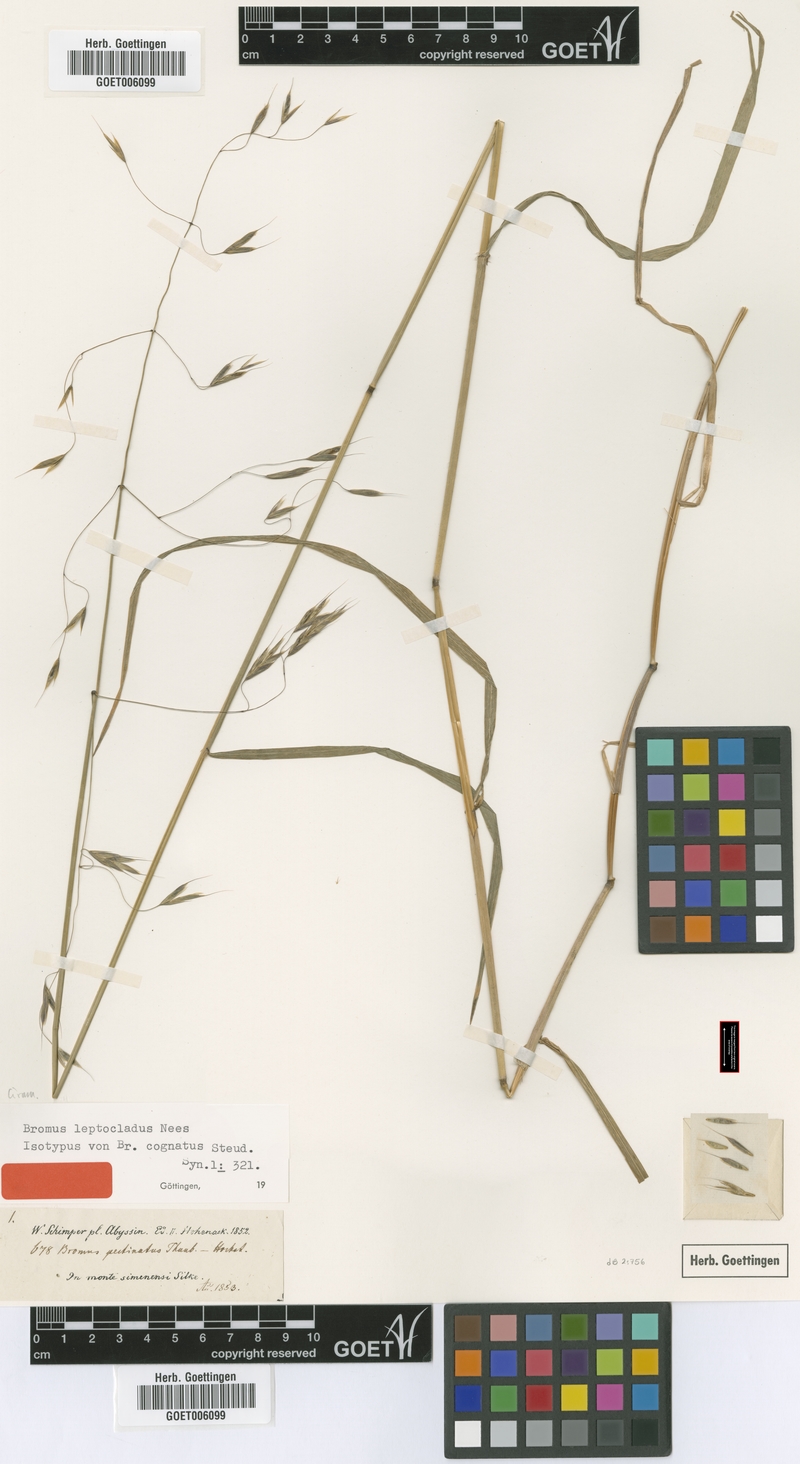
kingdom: Plantae
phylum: Tracheophyta
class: Liliopsida
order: Poales
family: Poaceae
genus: Bromus
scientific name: Bromus leptoclados
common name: Mountain bromegrass
